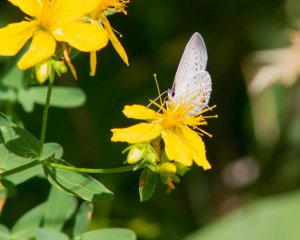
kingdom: Animalia
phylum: Arthropoda
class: Insecta
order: Lepidoptera
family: Lycaenidae
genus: Elkalyce
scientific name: Elkalyce comyntas
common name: Eastern Tailed-Blue
